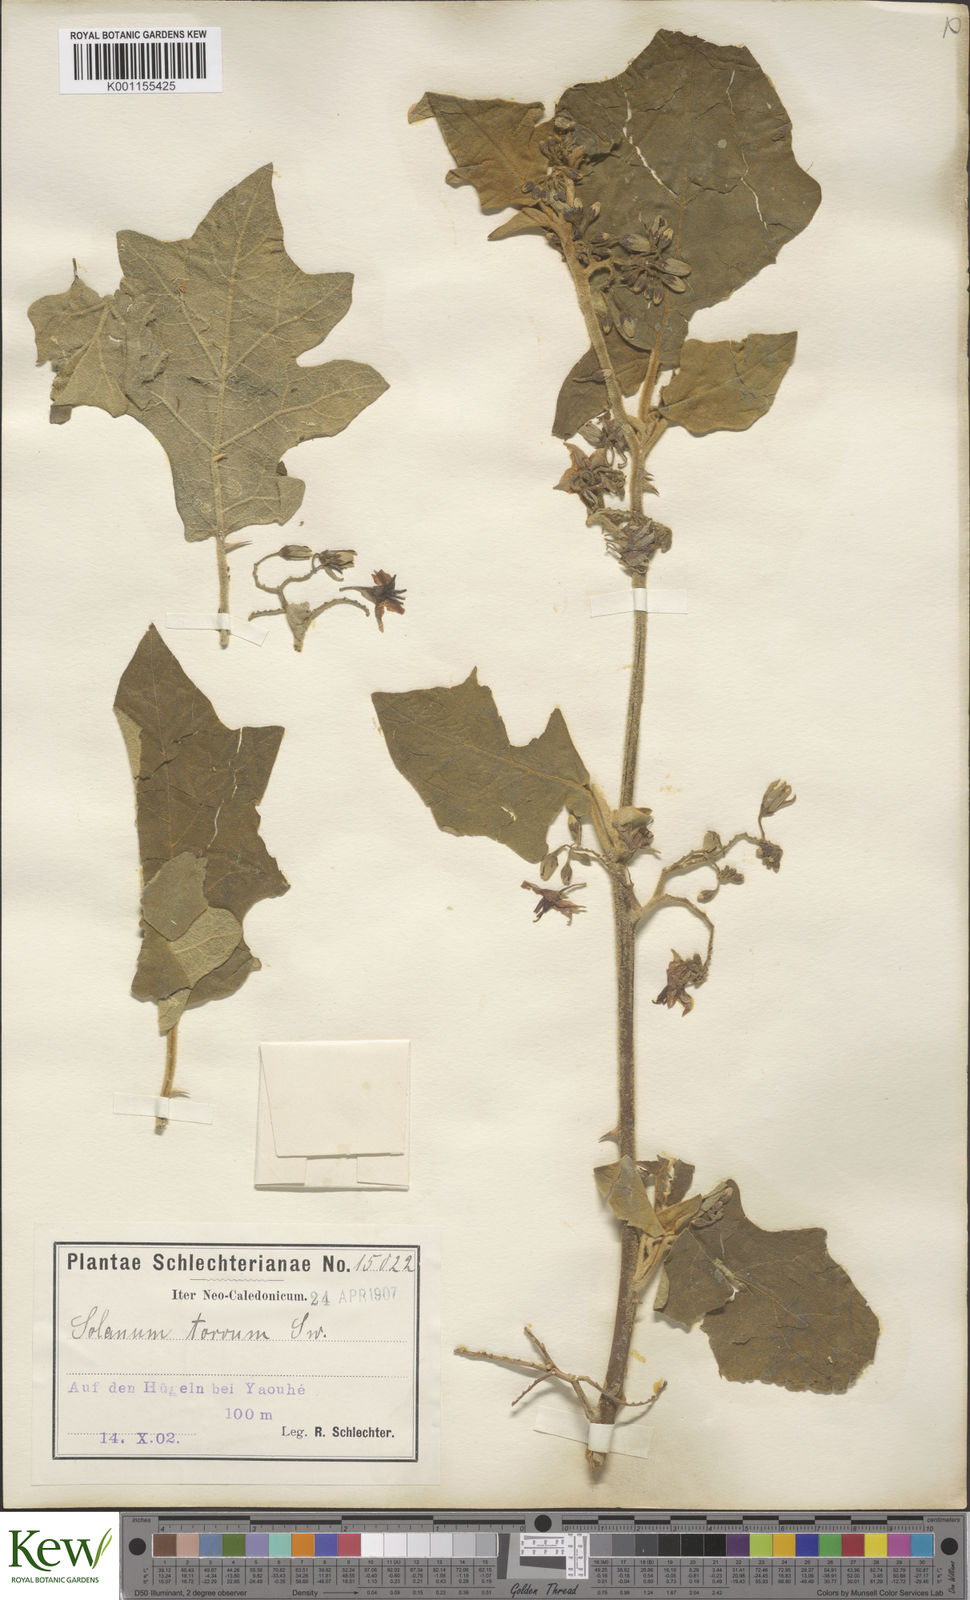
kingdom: Plantae
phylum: Tracheophyta
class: Magnoliopsida
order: Solanales
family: Solanaceae
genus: Solanum
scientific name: Solanum torvum
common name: Turkey berry
